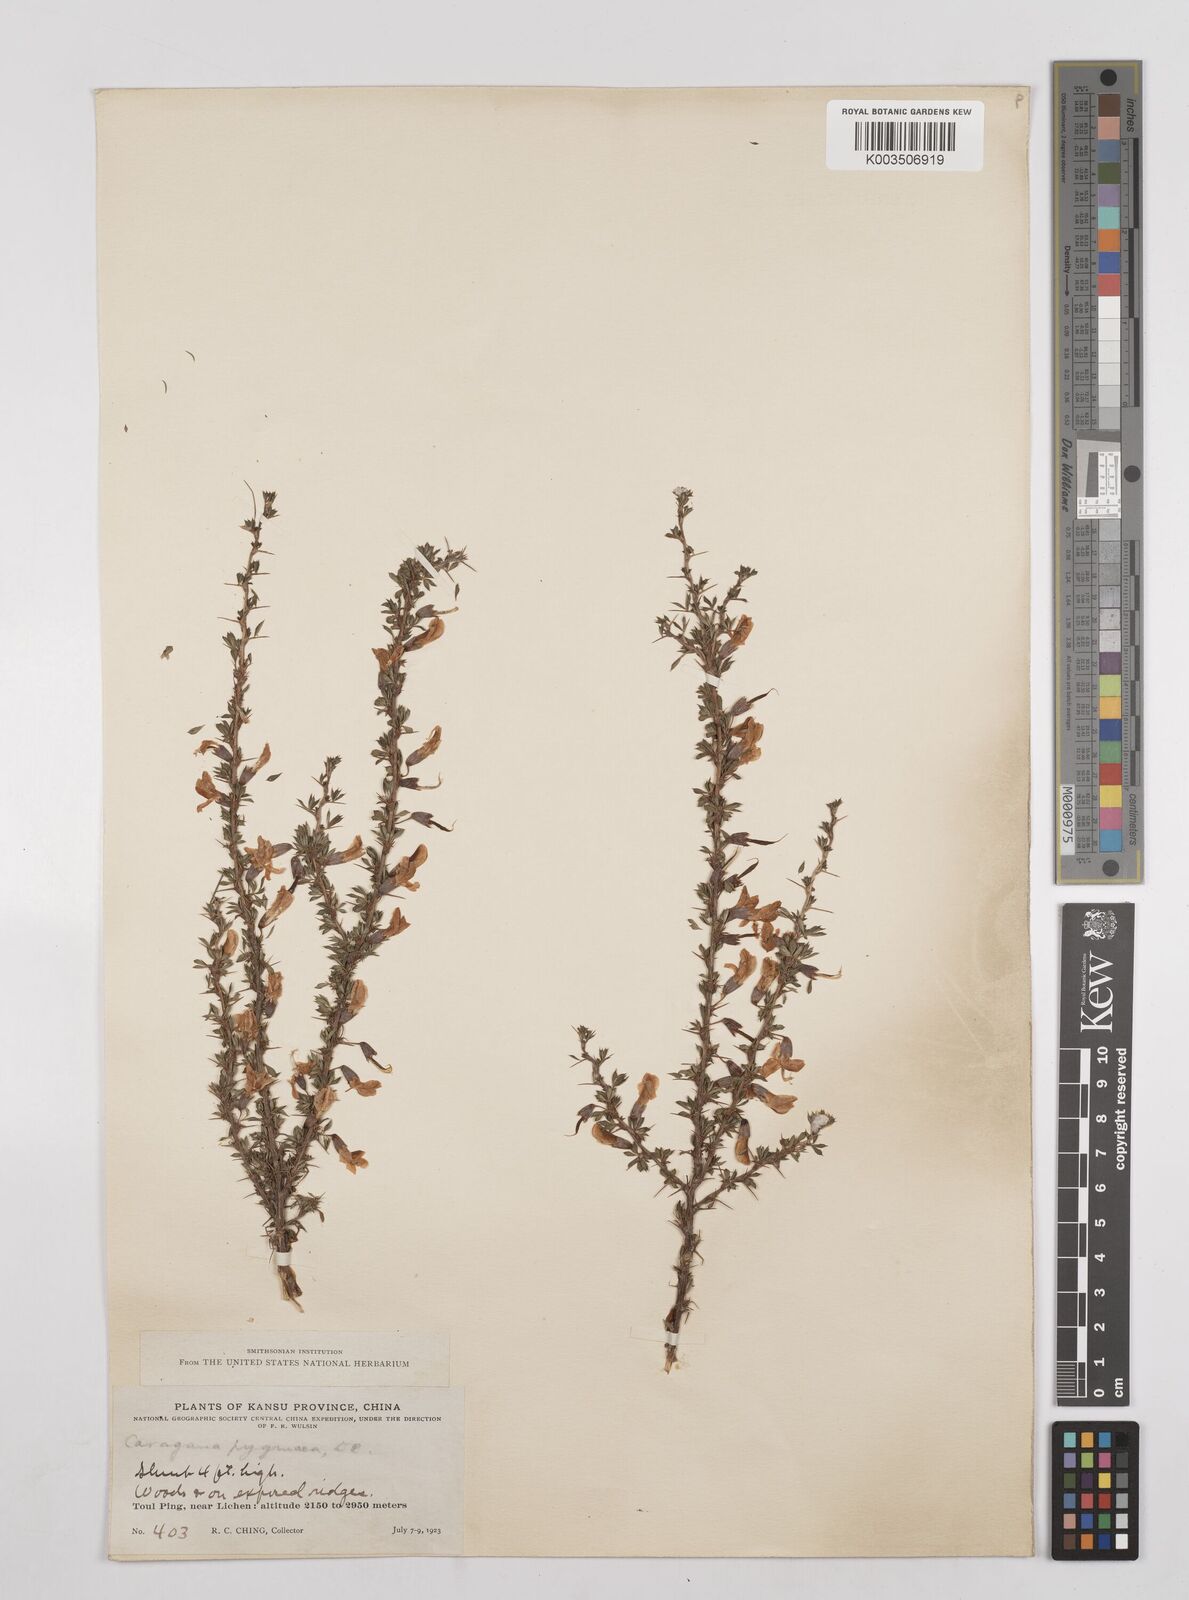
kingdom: Plantae
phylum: Tracheophyta
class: Magnoliopsida
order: Fabales
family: Fabaceae
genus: Caragana
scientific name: Caragana pygmaea
